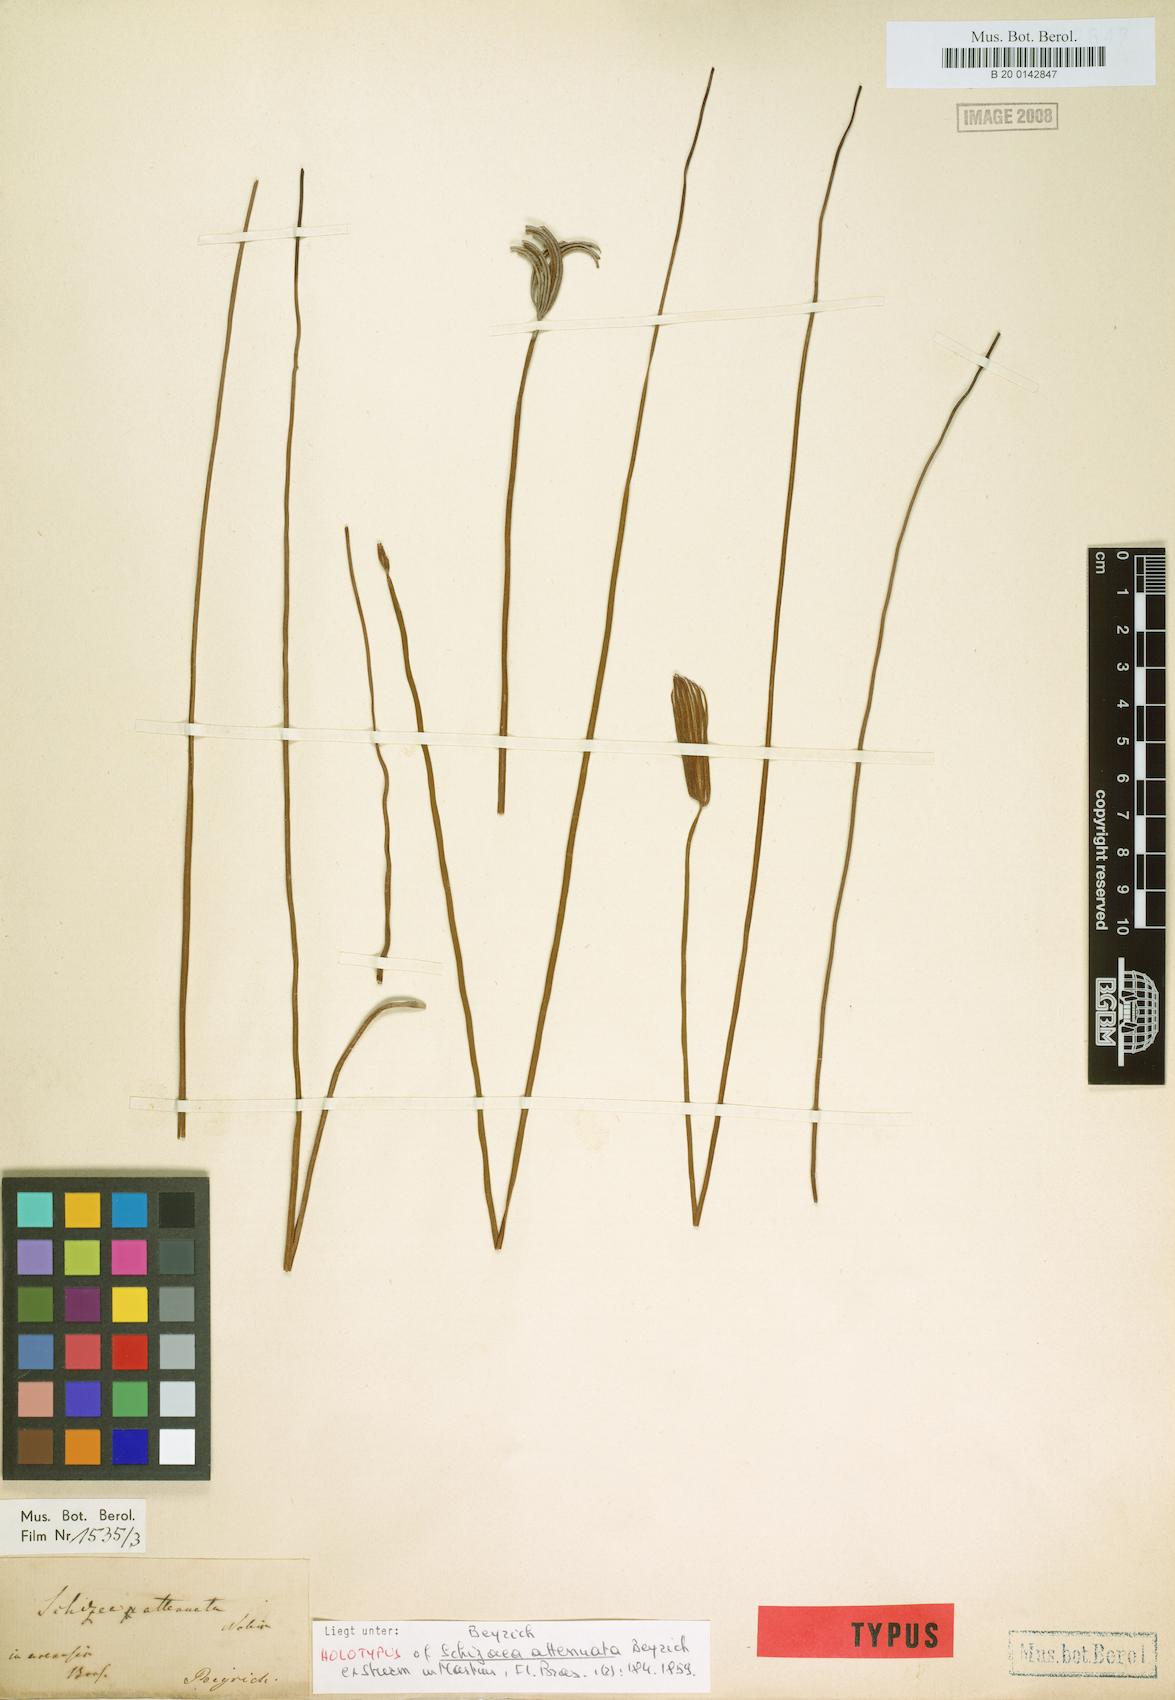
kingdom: Plantae
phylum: Tracheophyta
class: Polypodiopsida
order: Schizaeales
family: Schizaeaceae
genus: Actinostachys
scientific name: Actinostachys subtrijuga
